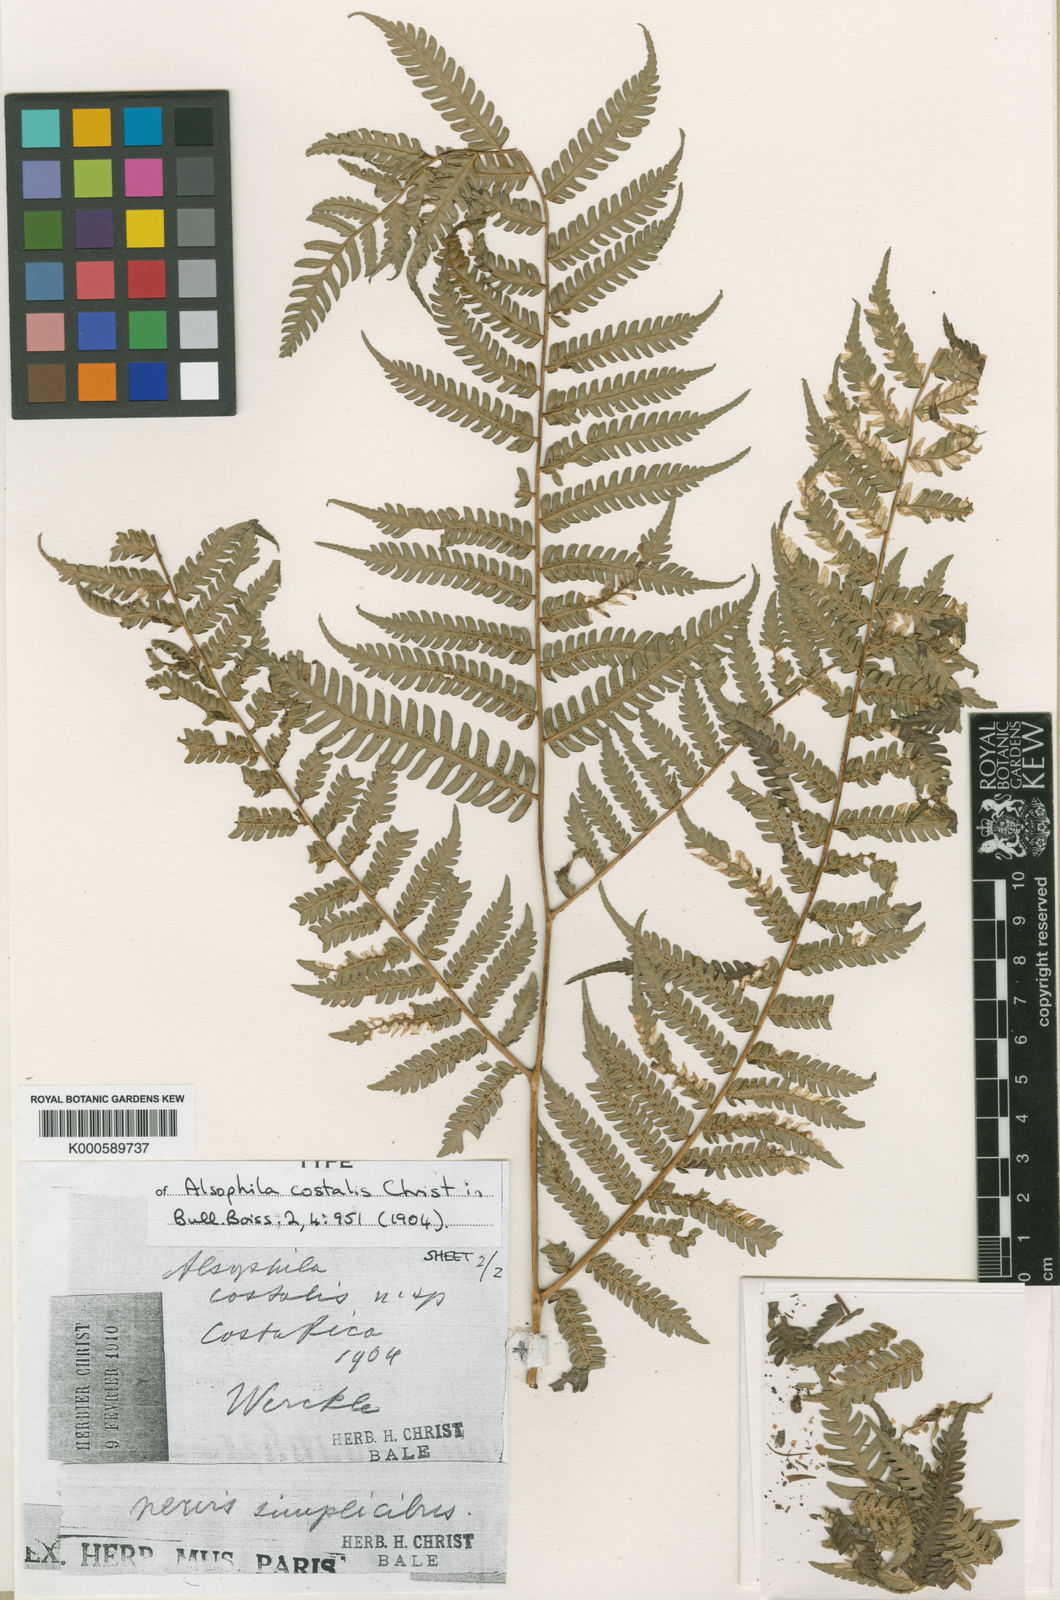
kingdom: Plantae
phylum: Tracheophyta
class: Polypodiopsida
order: Cyatheales
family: Cyatheaceae
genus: Cyathea
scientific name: Cyathea
